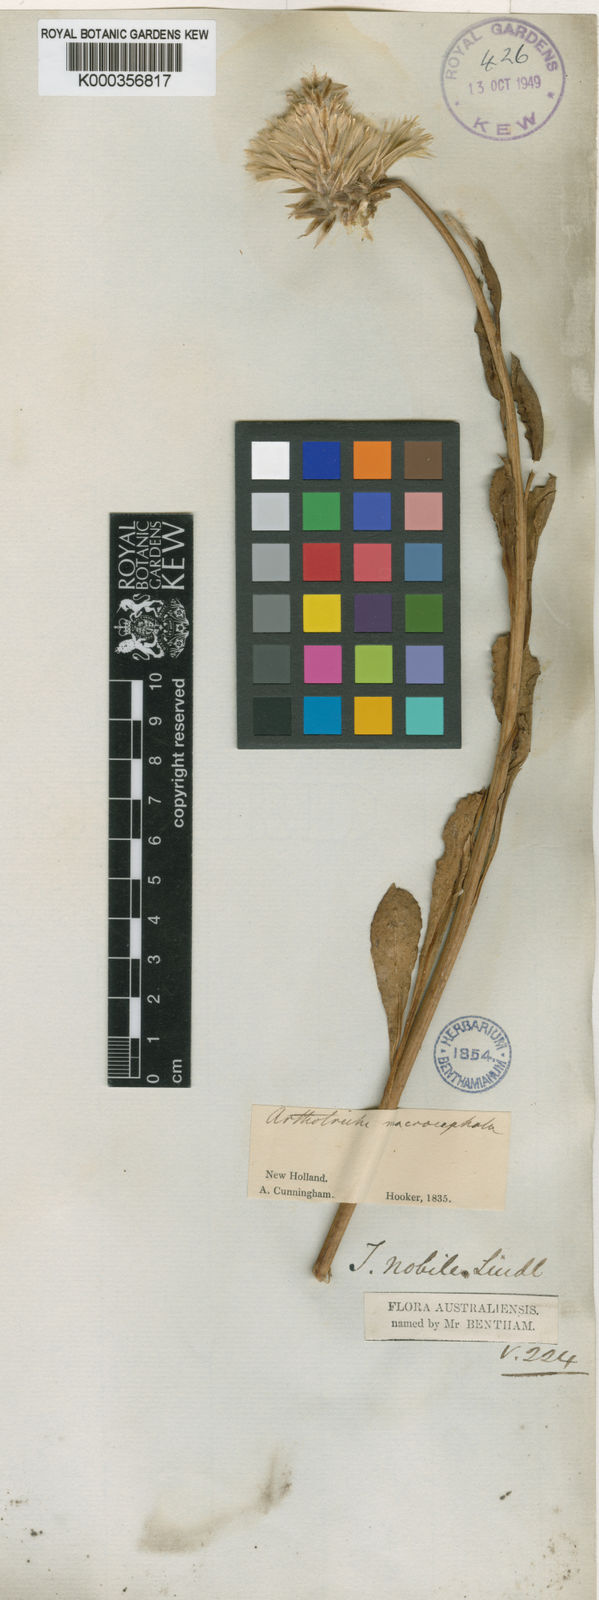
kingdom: Plantae
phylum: Tracheophyta
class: Magnoliopsida
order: Caryophyllales
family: Amaranthaceae
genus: Ptilotus
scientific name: Ptilotus macrocephalus
